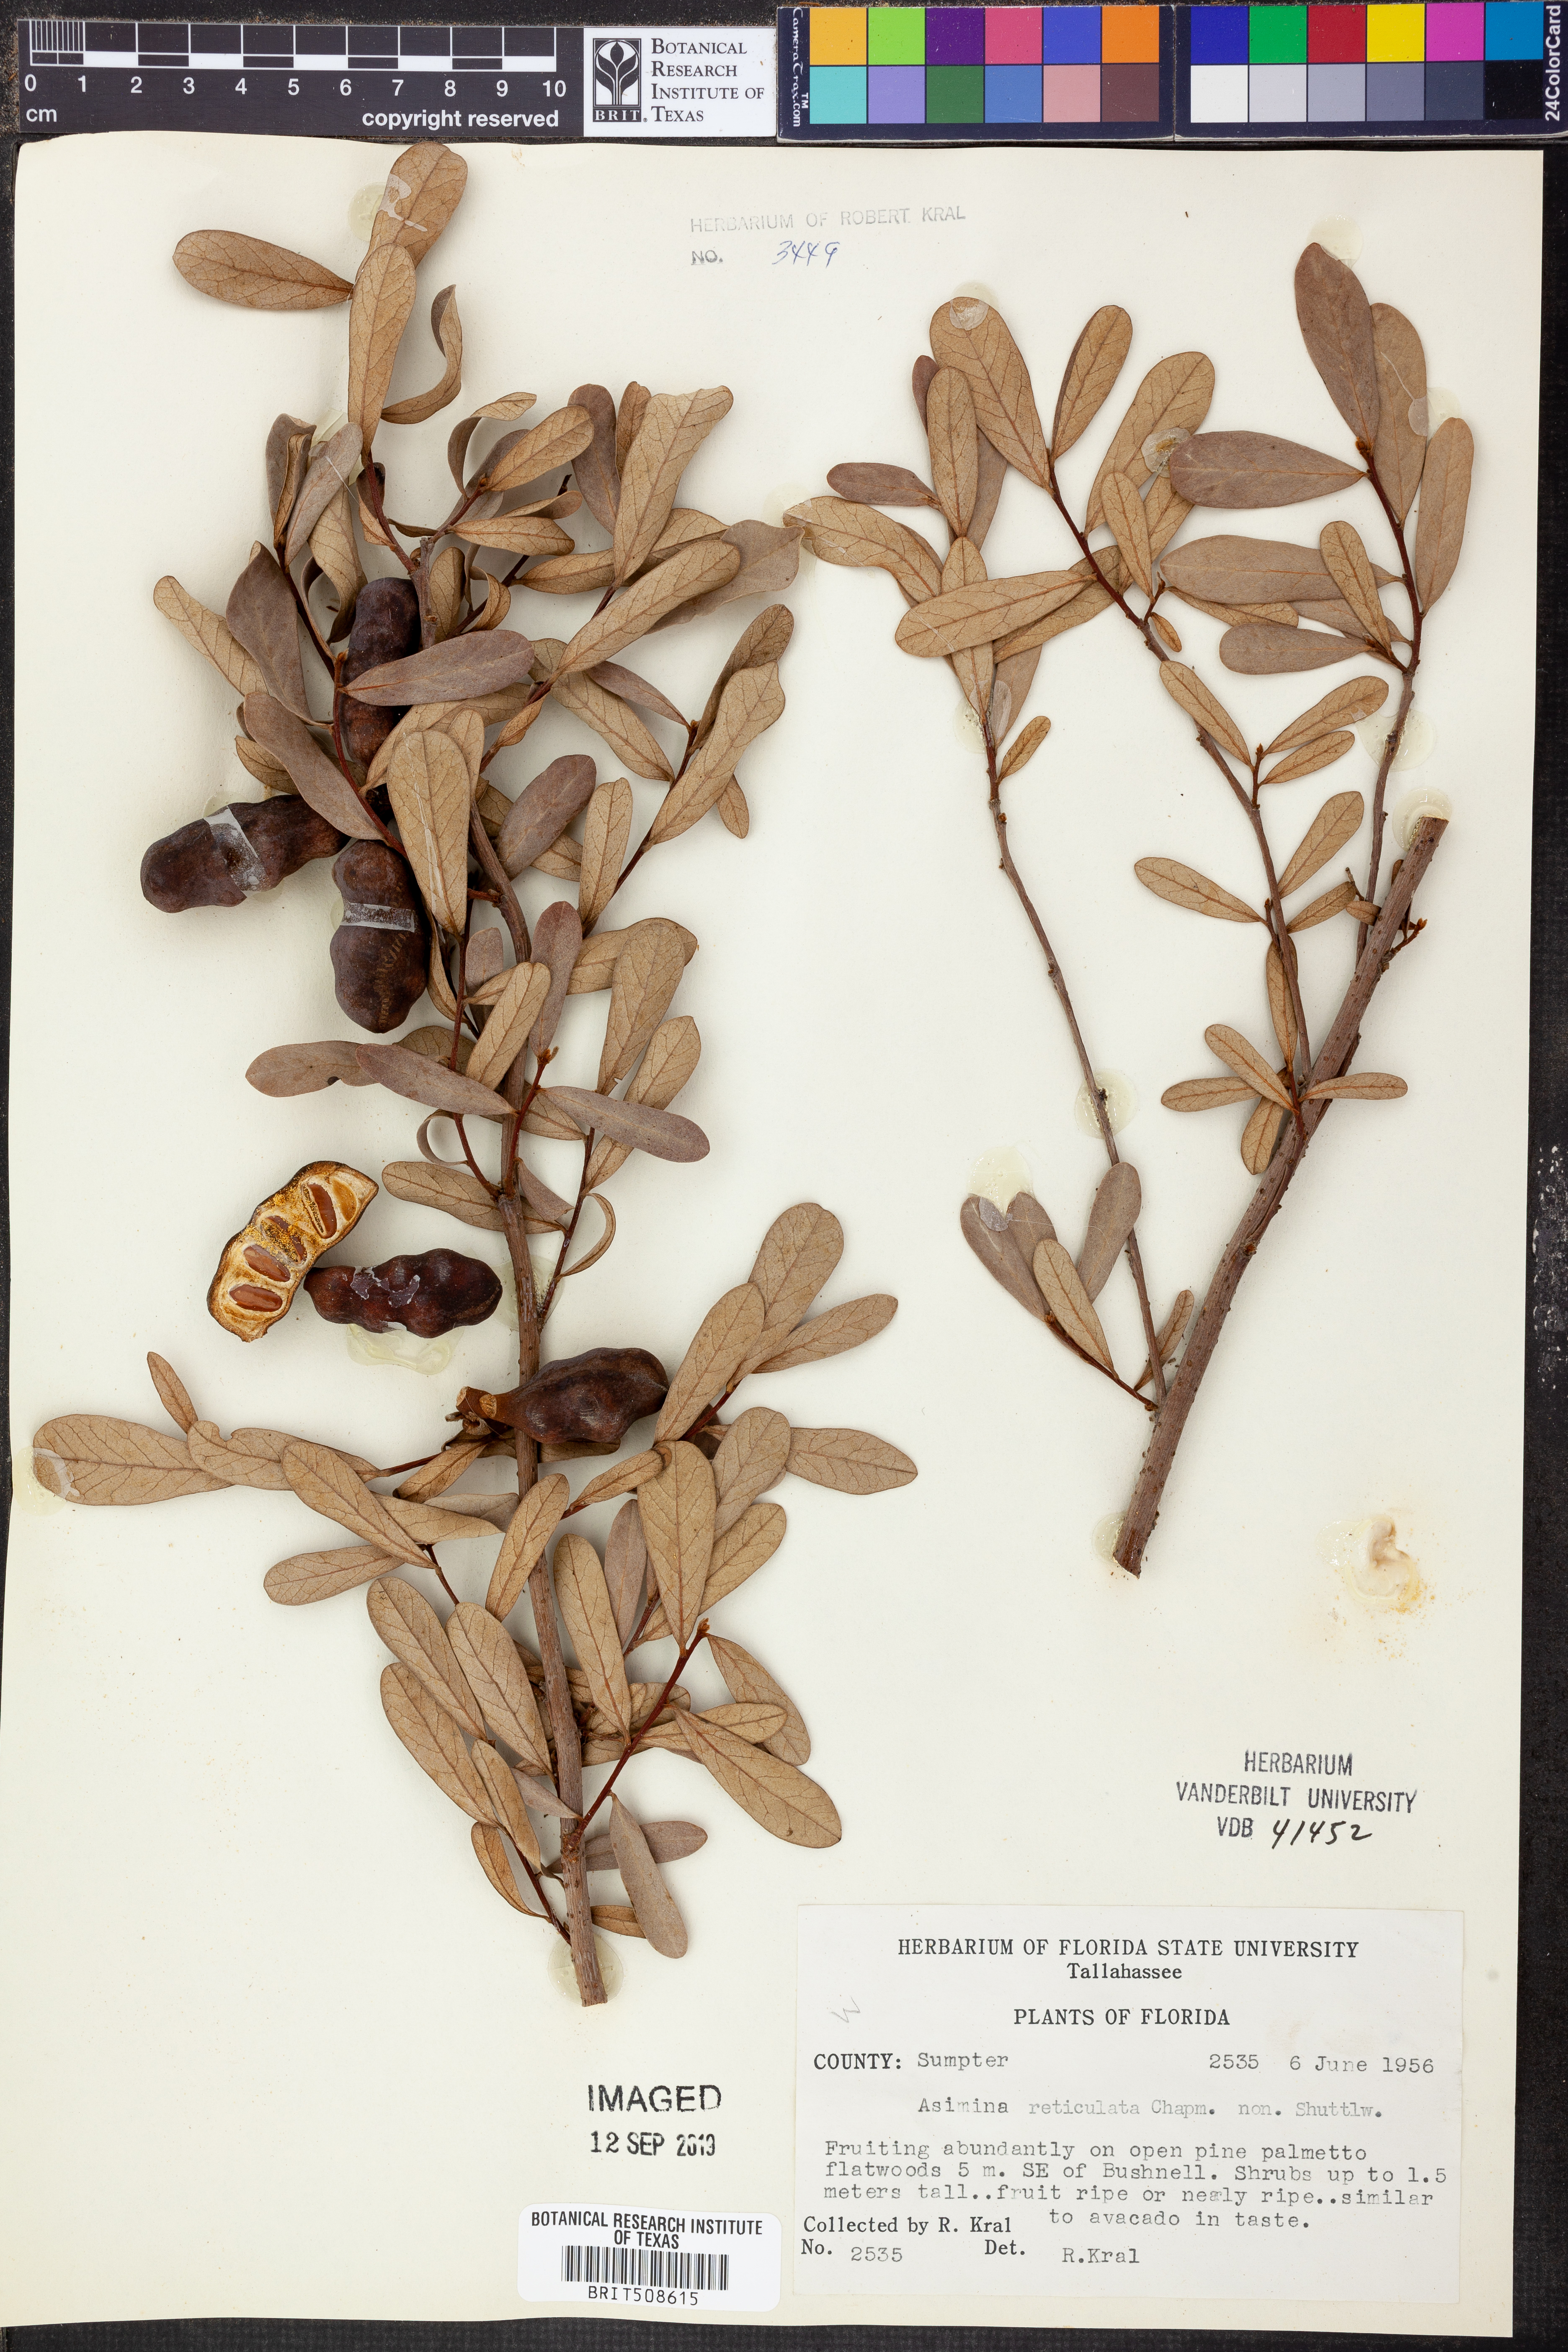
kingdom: Plantae
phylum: Tracheophyta
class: Magnoliopsida
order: Magnoliales
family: Annonaceae
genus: Asimina
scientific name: Asimina reticulata
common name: Flag pawpaw
